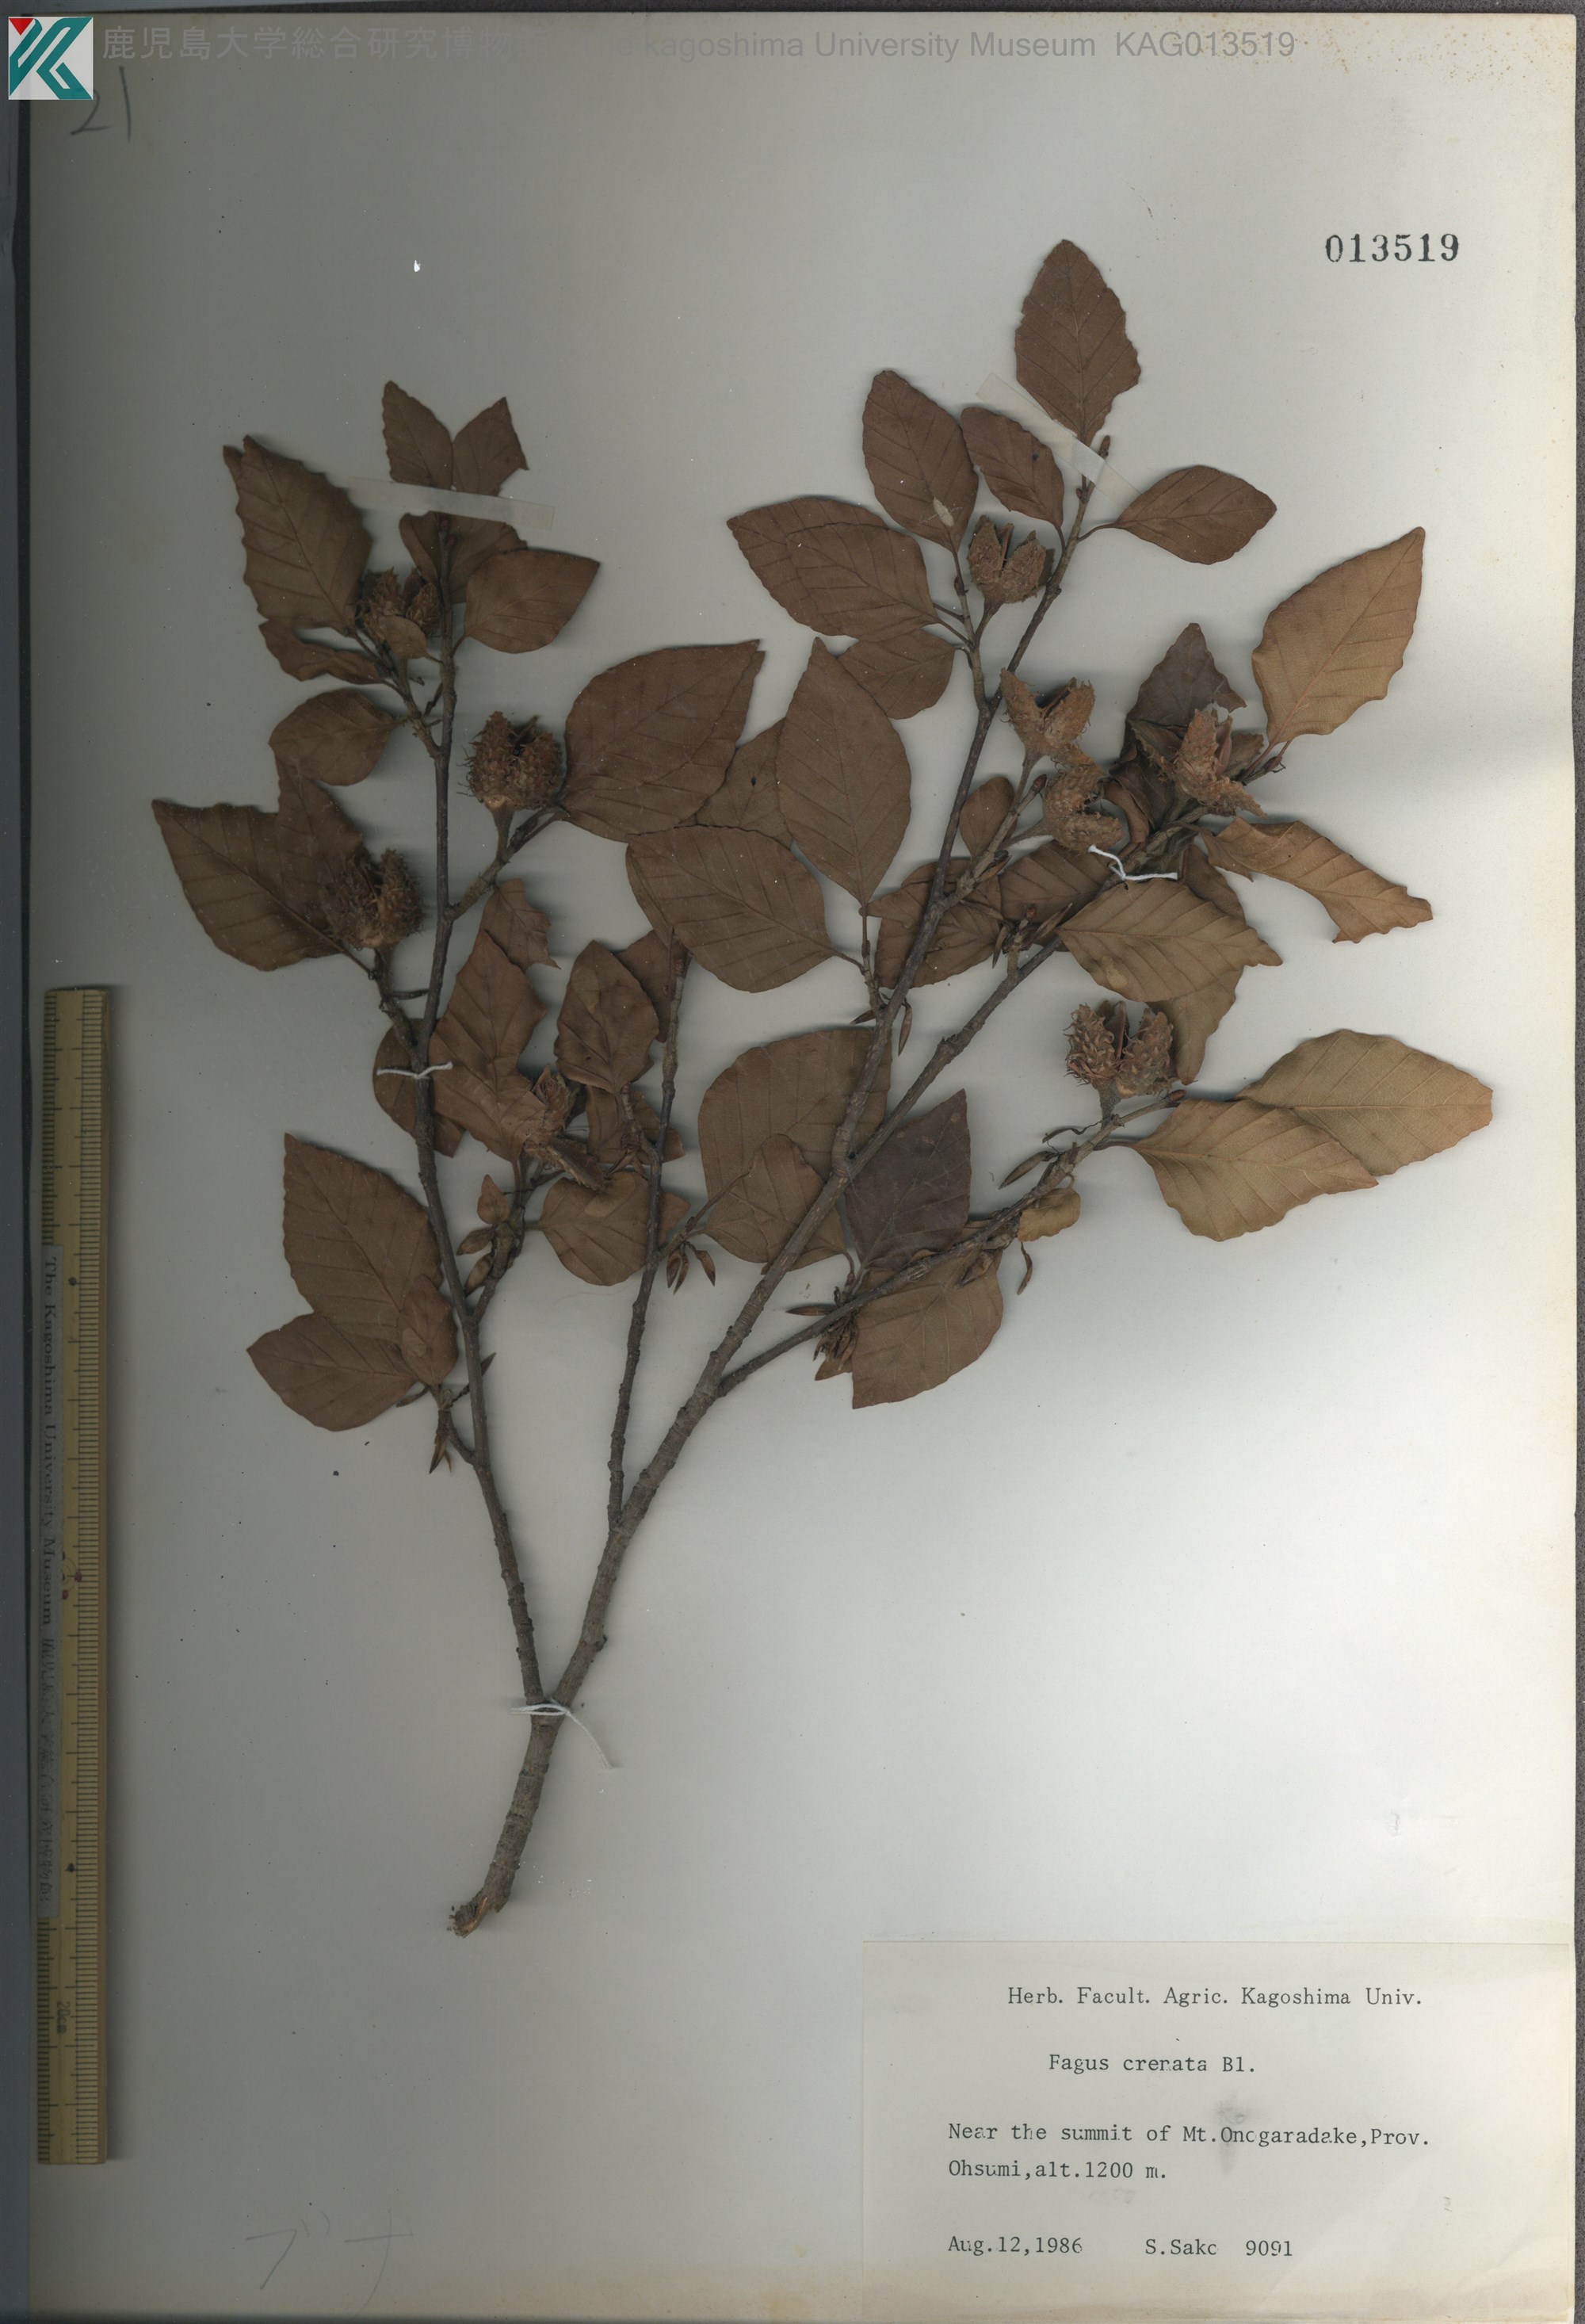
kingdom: Plantae
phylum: Tracheophyta
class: Magnoliopsida
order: Fagales
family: Fagaceae
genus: Fagus
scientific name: Fagus crenata
